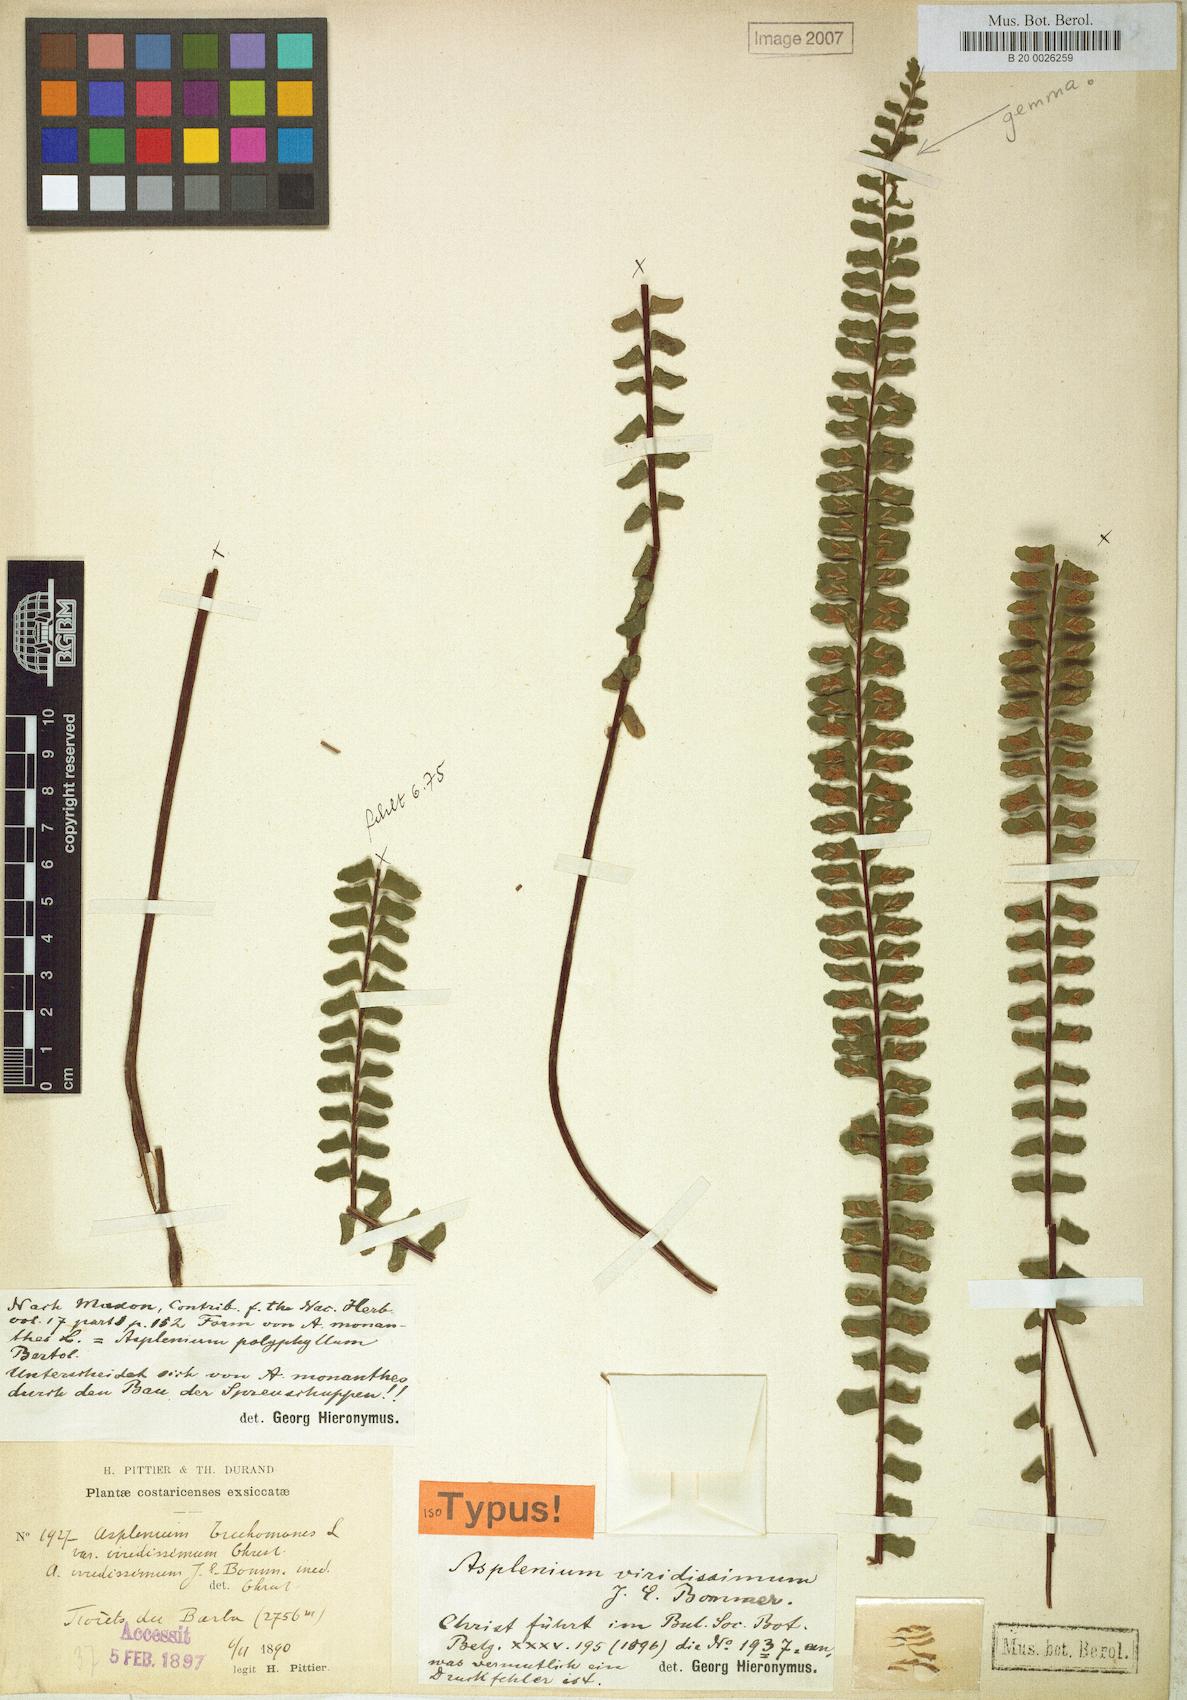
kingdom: Plantae
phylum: Tracheophyta
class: Polypodiopsida
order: Polypodiales
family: Aspleniaceae
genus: Asplenium
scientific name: Asplenium polyphyllum
